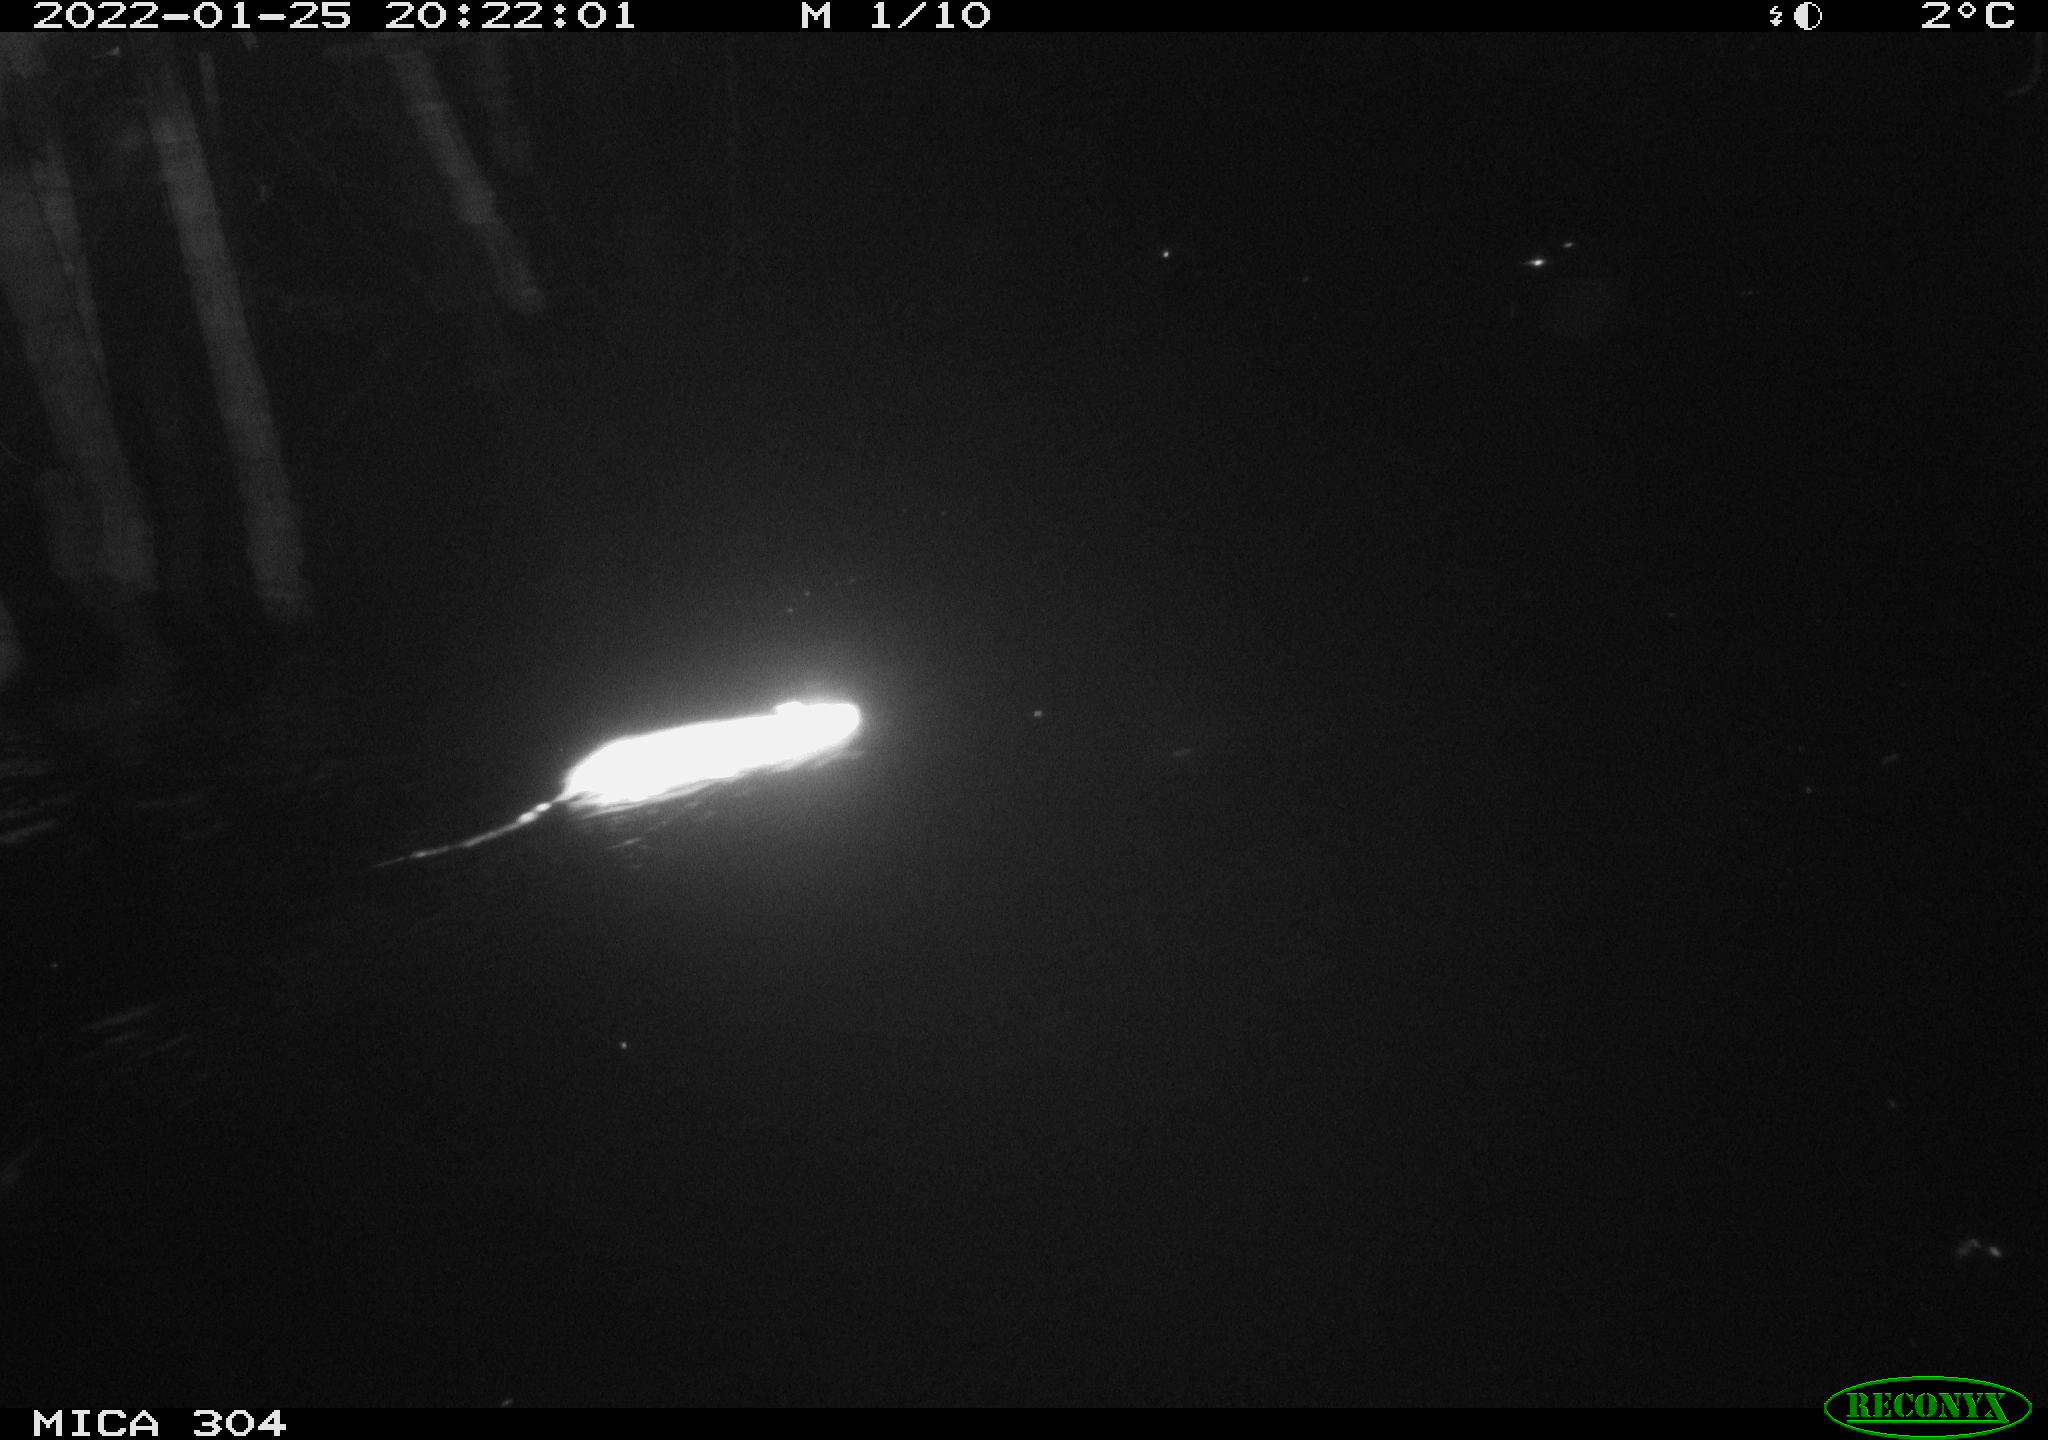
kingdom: Animalia
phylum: Chordata
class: Mammalia
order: Rodentia
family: Muridae
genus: Rattus
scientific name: Rattus norvegicus
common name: Brown rat
